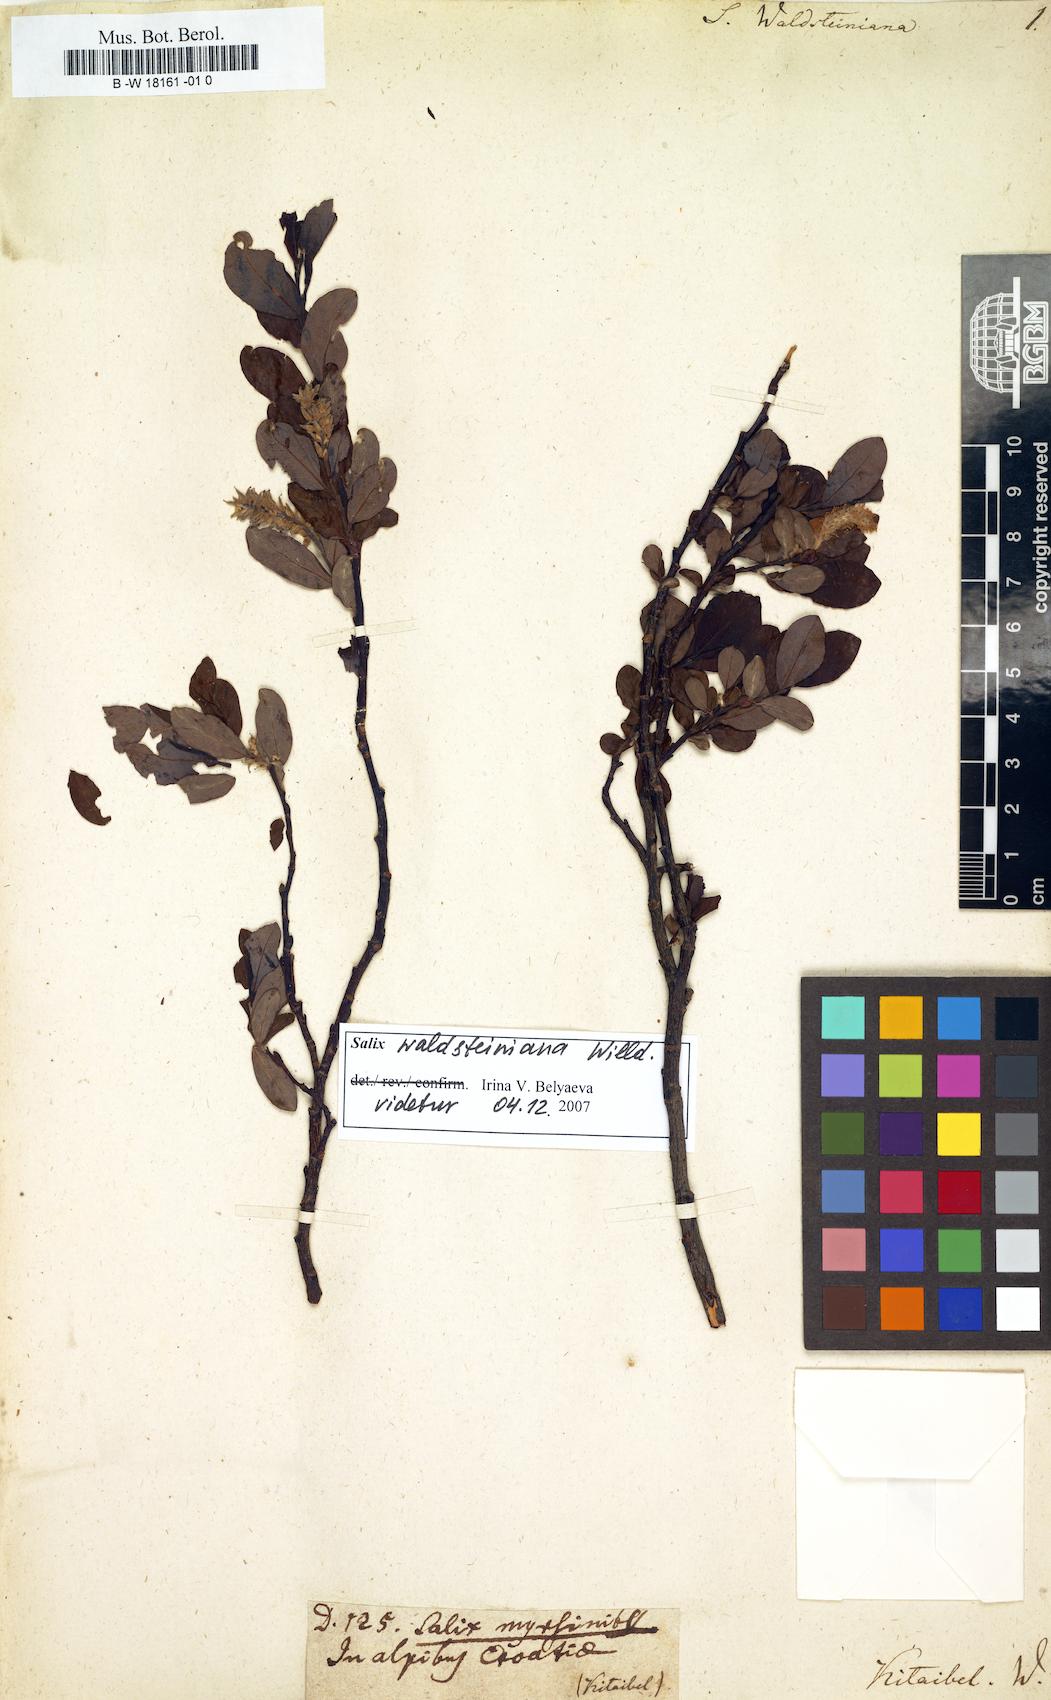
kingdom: Plantae
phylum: Tracheophyta
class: Magnoliopsida
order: Malpighiales
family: Salicaceae
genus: Salix
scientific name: Salix waldsteiniana
